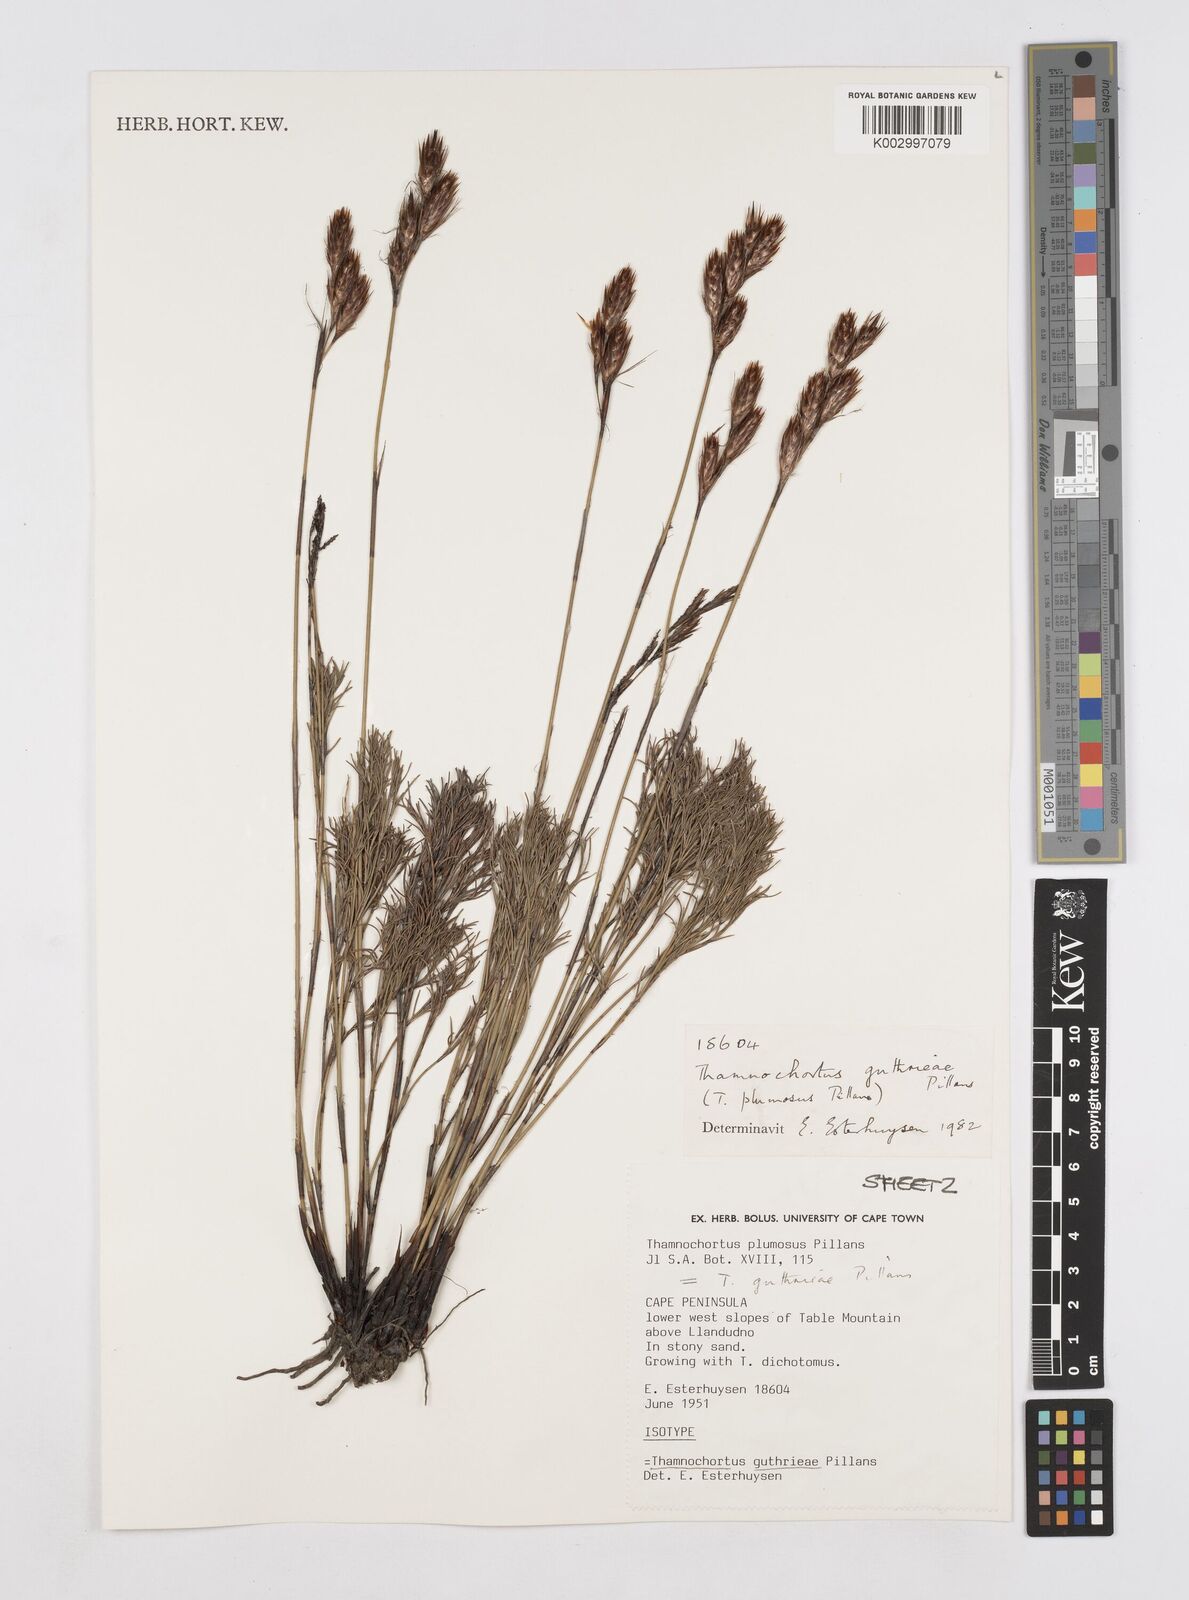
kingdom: Plantae
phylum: Tracheophyta
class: Liliopsida
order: Poales
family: Restionaceae
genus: Thamnochortus
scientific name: Thamnochortus guthrieae
